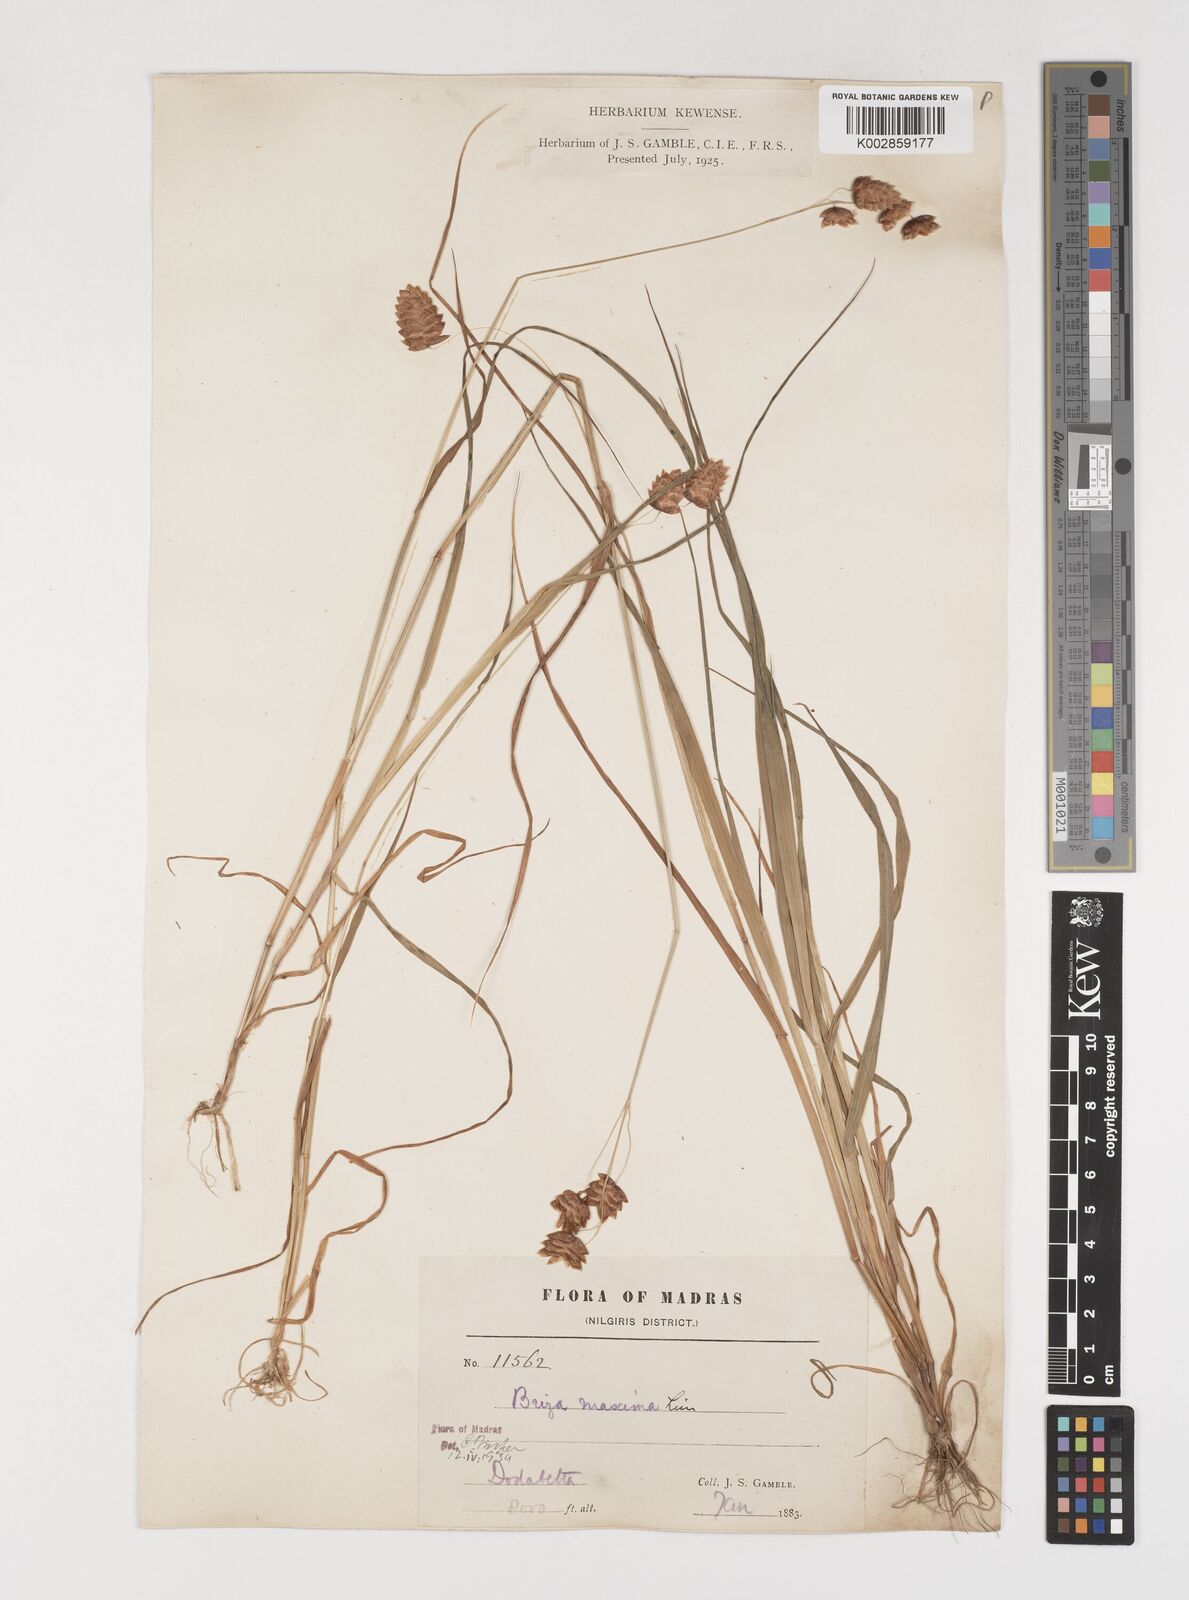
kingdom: Plantae
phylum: Tracheophyta
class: Liliopsida
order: Poales
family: Poaceae
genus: Briza
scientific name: Briza maxima
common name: Big quakinggrass
